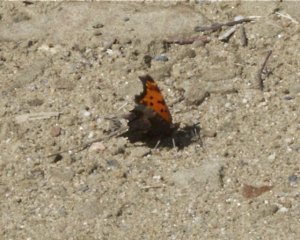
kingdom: Animalia
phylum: Arthropoda
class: Insecta
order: Lepidoptera
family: Nymphalidae
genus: Polygonia
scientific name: Polygonia progne
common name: Gray Comma
